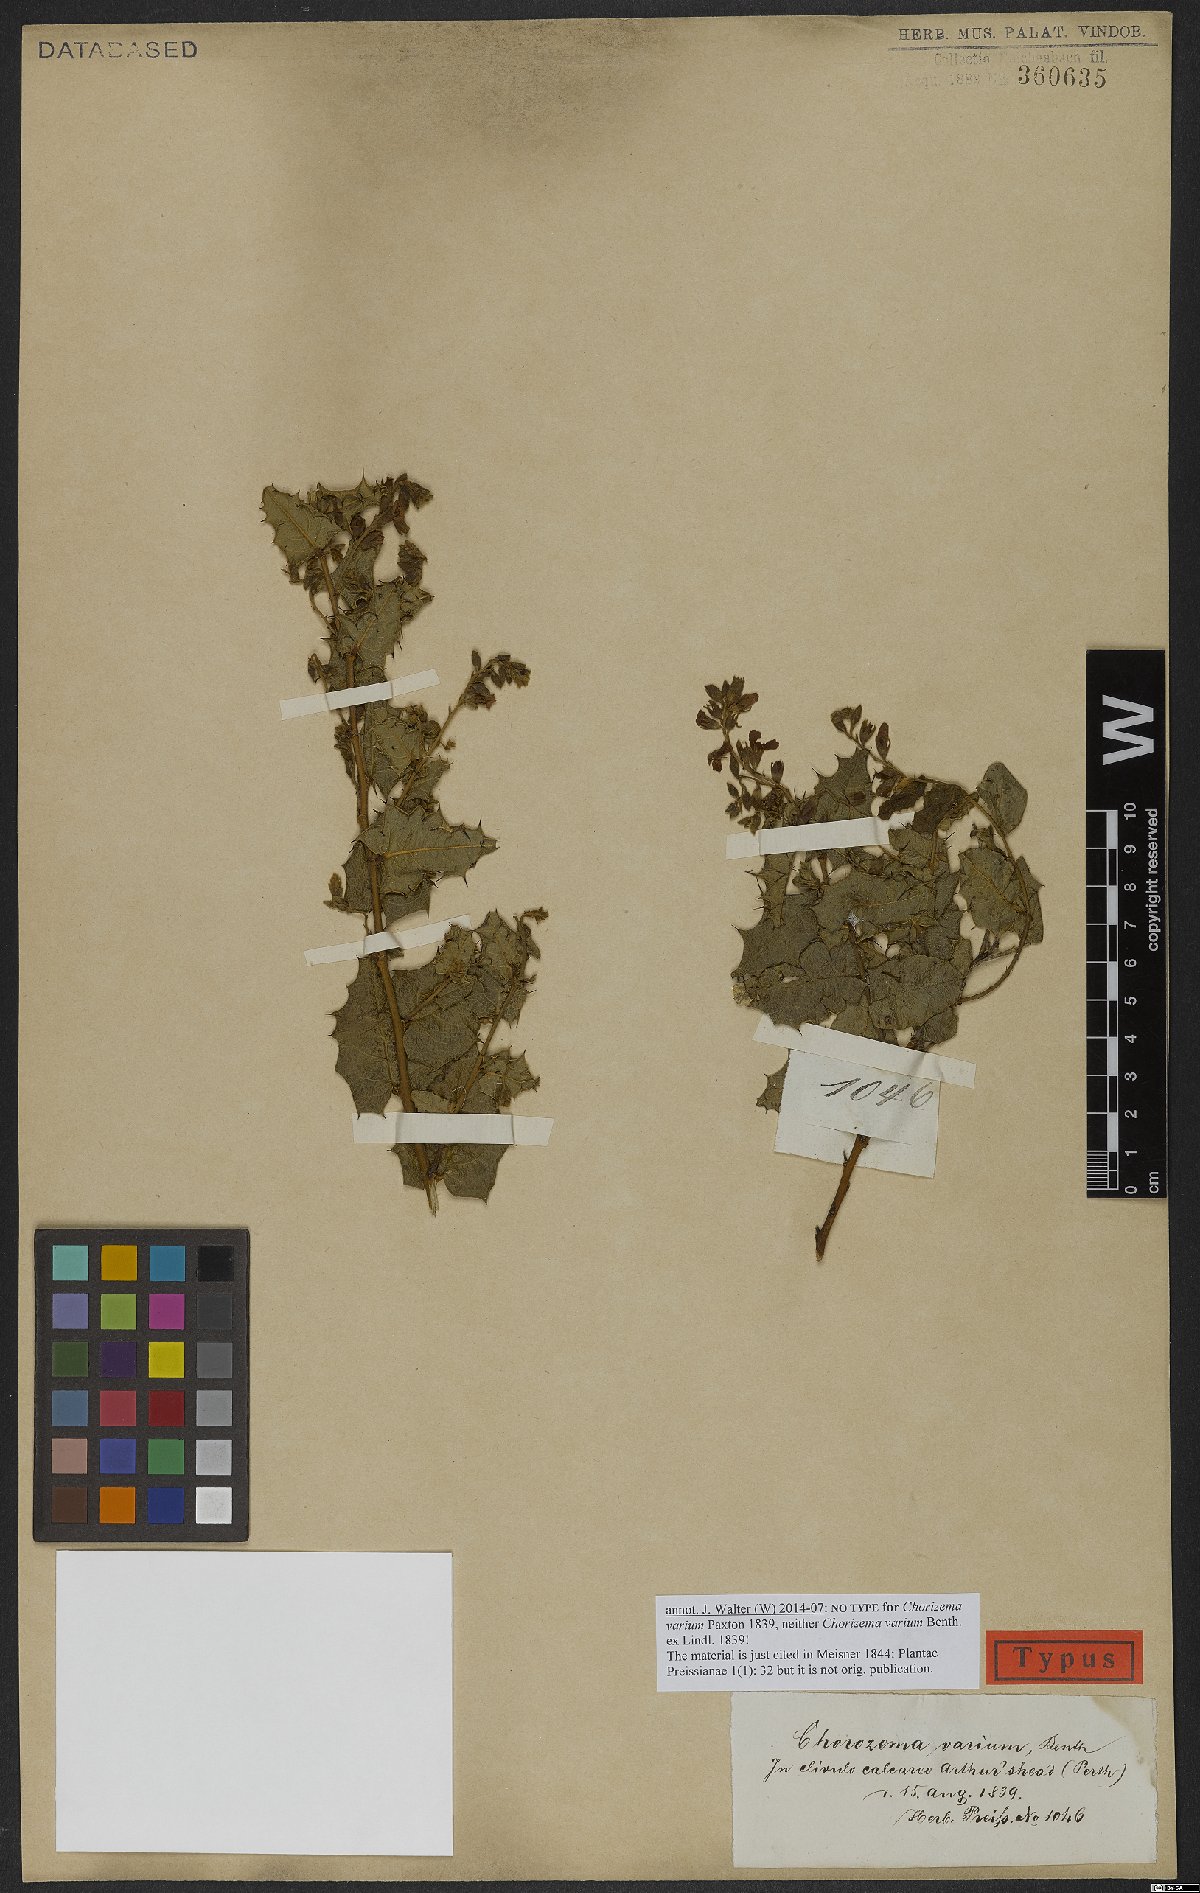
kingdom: Plantae
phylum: Tracheophyta
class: Magnoliopsida
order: Fabales
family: Fabaceae
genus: Chorizema
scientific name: Chorizema varium
